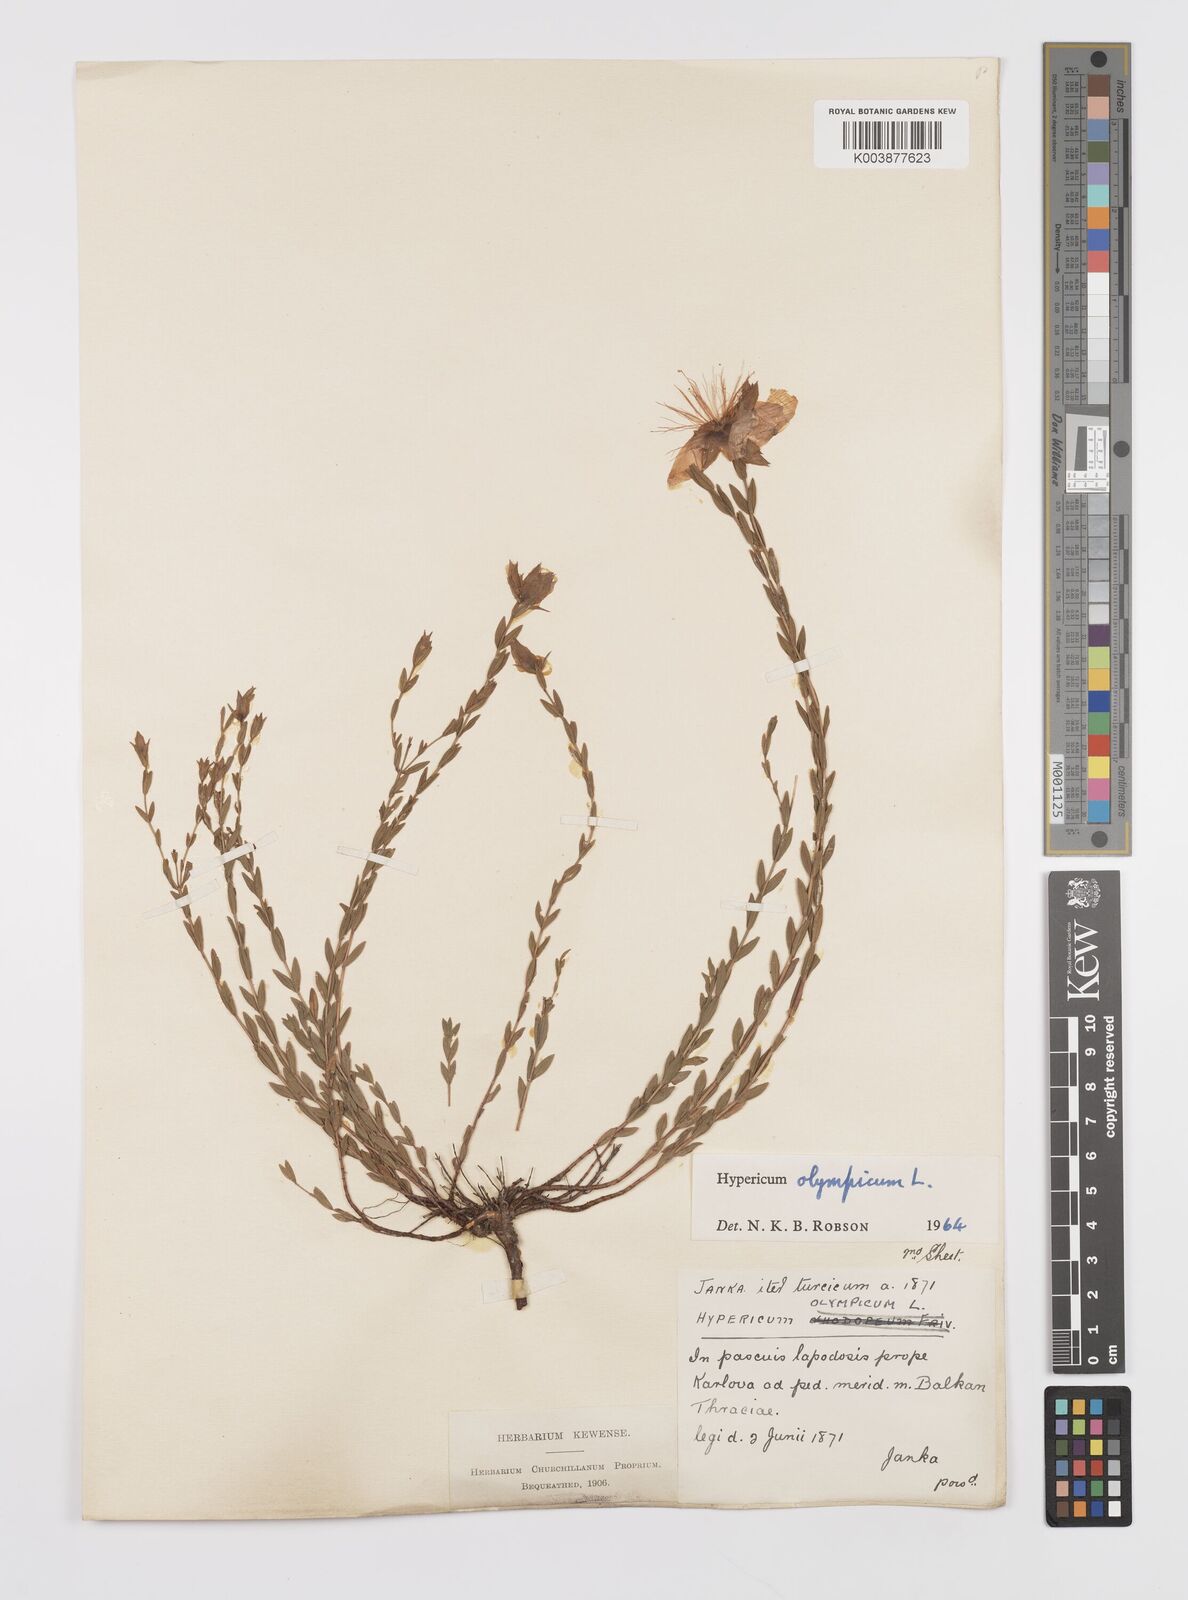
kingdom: Plantae
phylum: Tracheophyta
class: Magnoliopsida
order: Malpighiales
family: Hypericaceae
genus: Hypericum
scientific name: Hypericum olympicum
